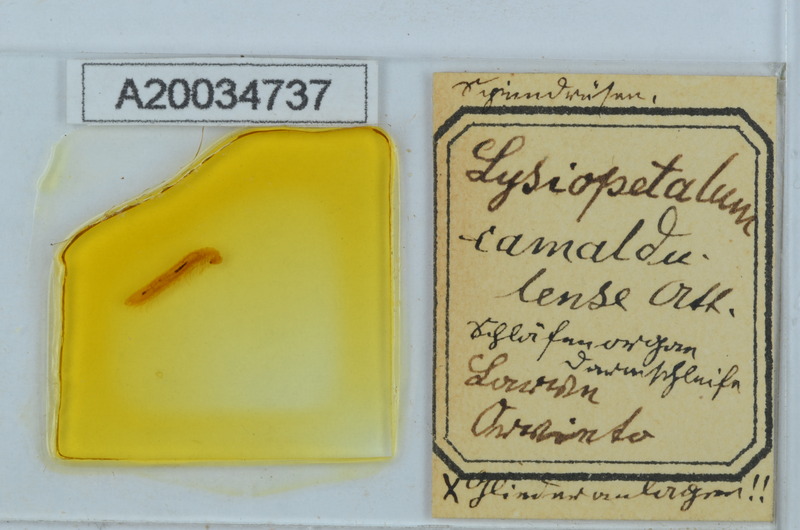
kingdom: Animalia
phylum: Arthropoda
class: Diplopoda
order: Callipodida
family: Schizopetalidae
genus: Callipodella
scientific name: Callipodella vinciguerrae
